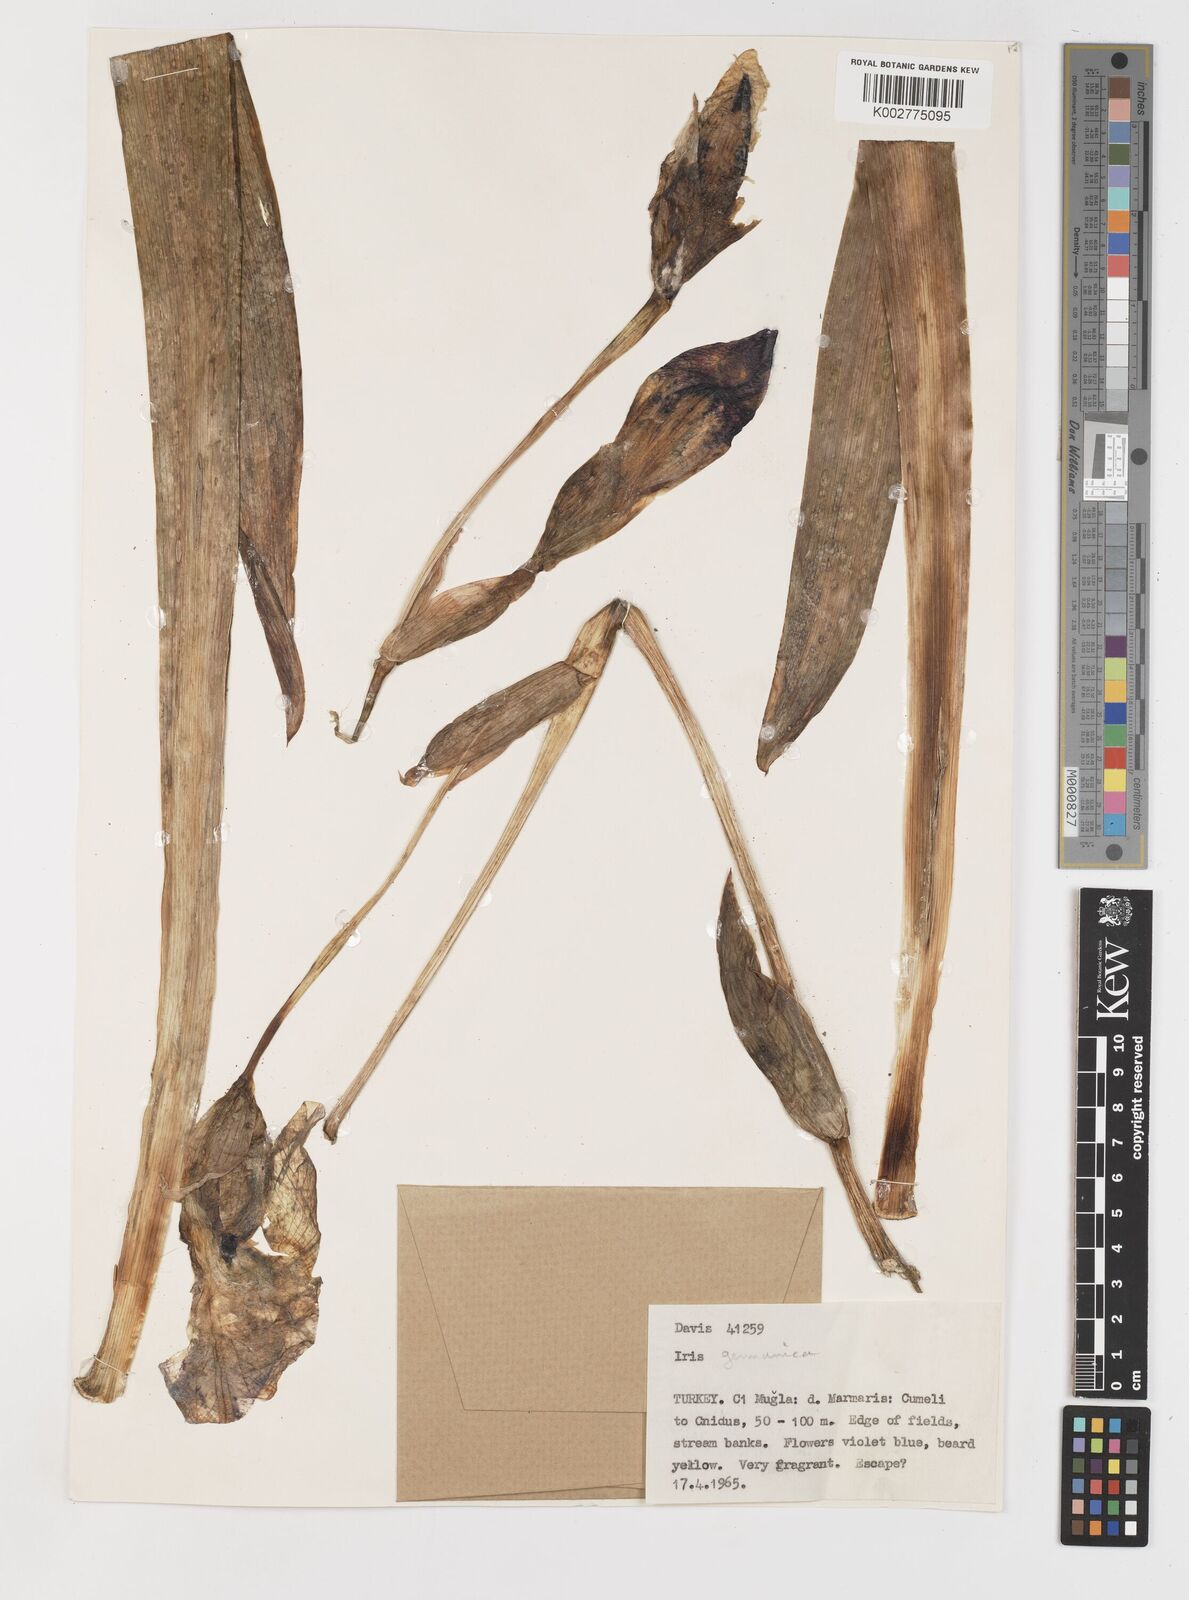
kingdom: Plantae
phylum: Tracheophyta
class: Liliopsida
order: Asparagales
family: Iridaceae
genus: Iris
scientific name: Iris germanica
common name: German iris
